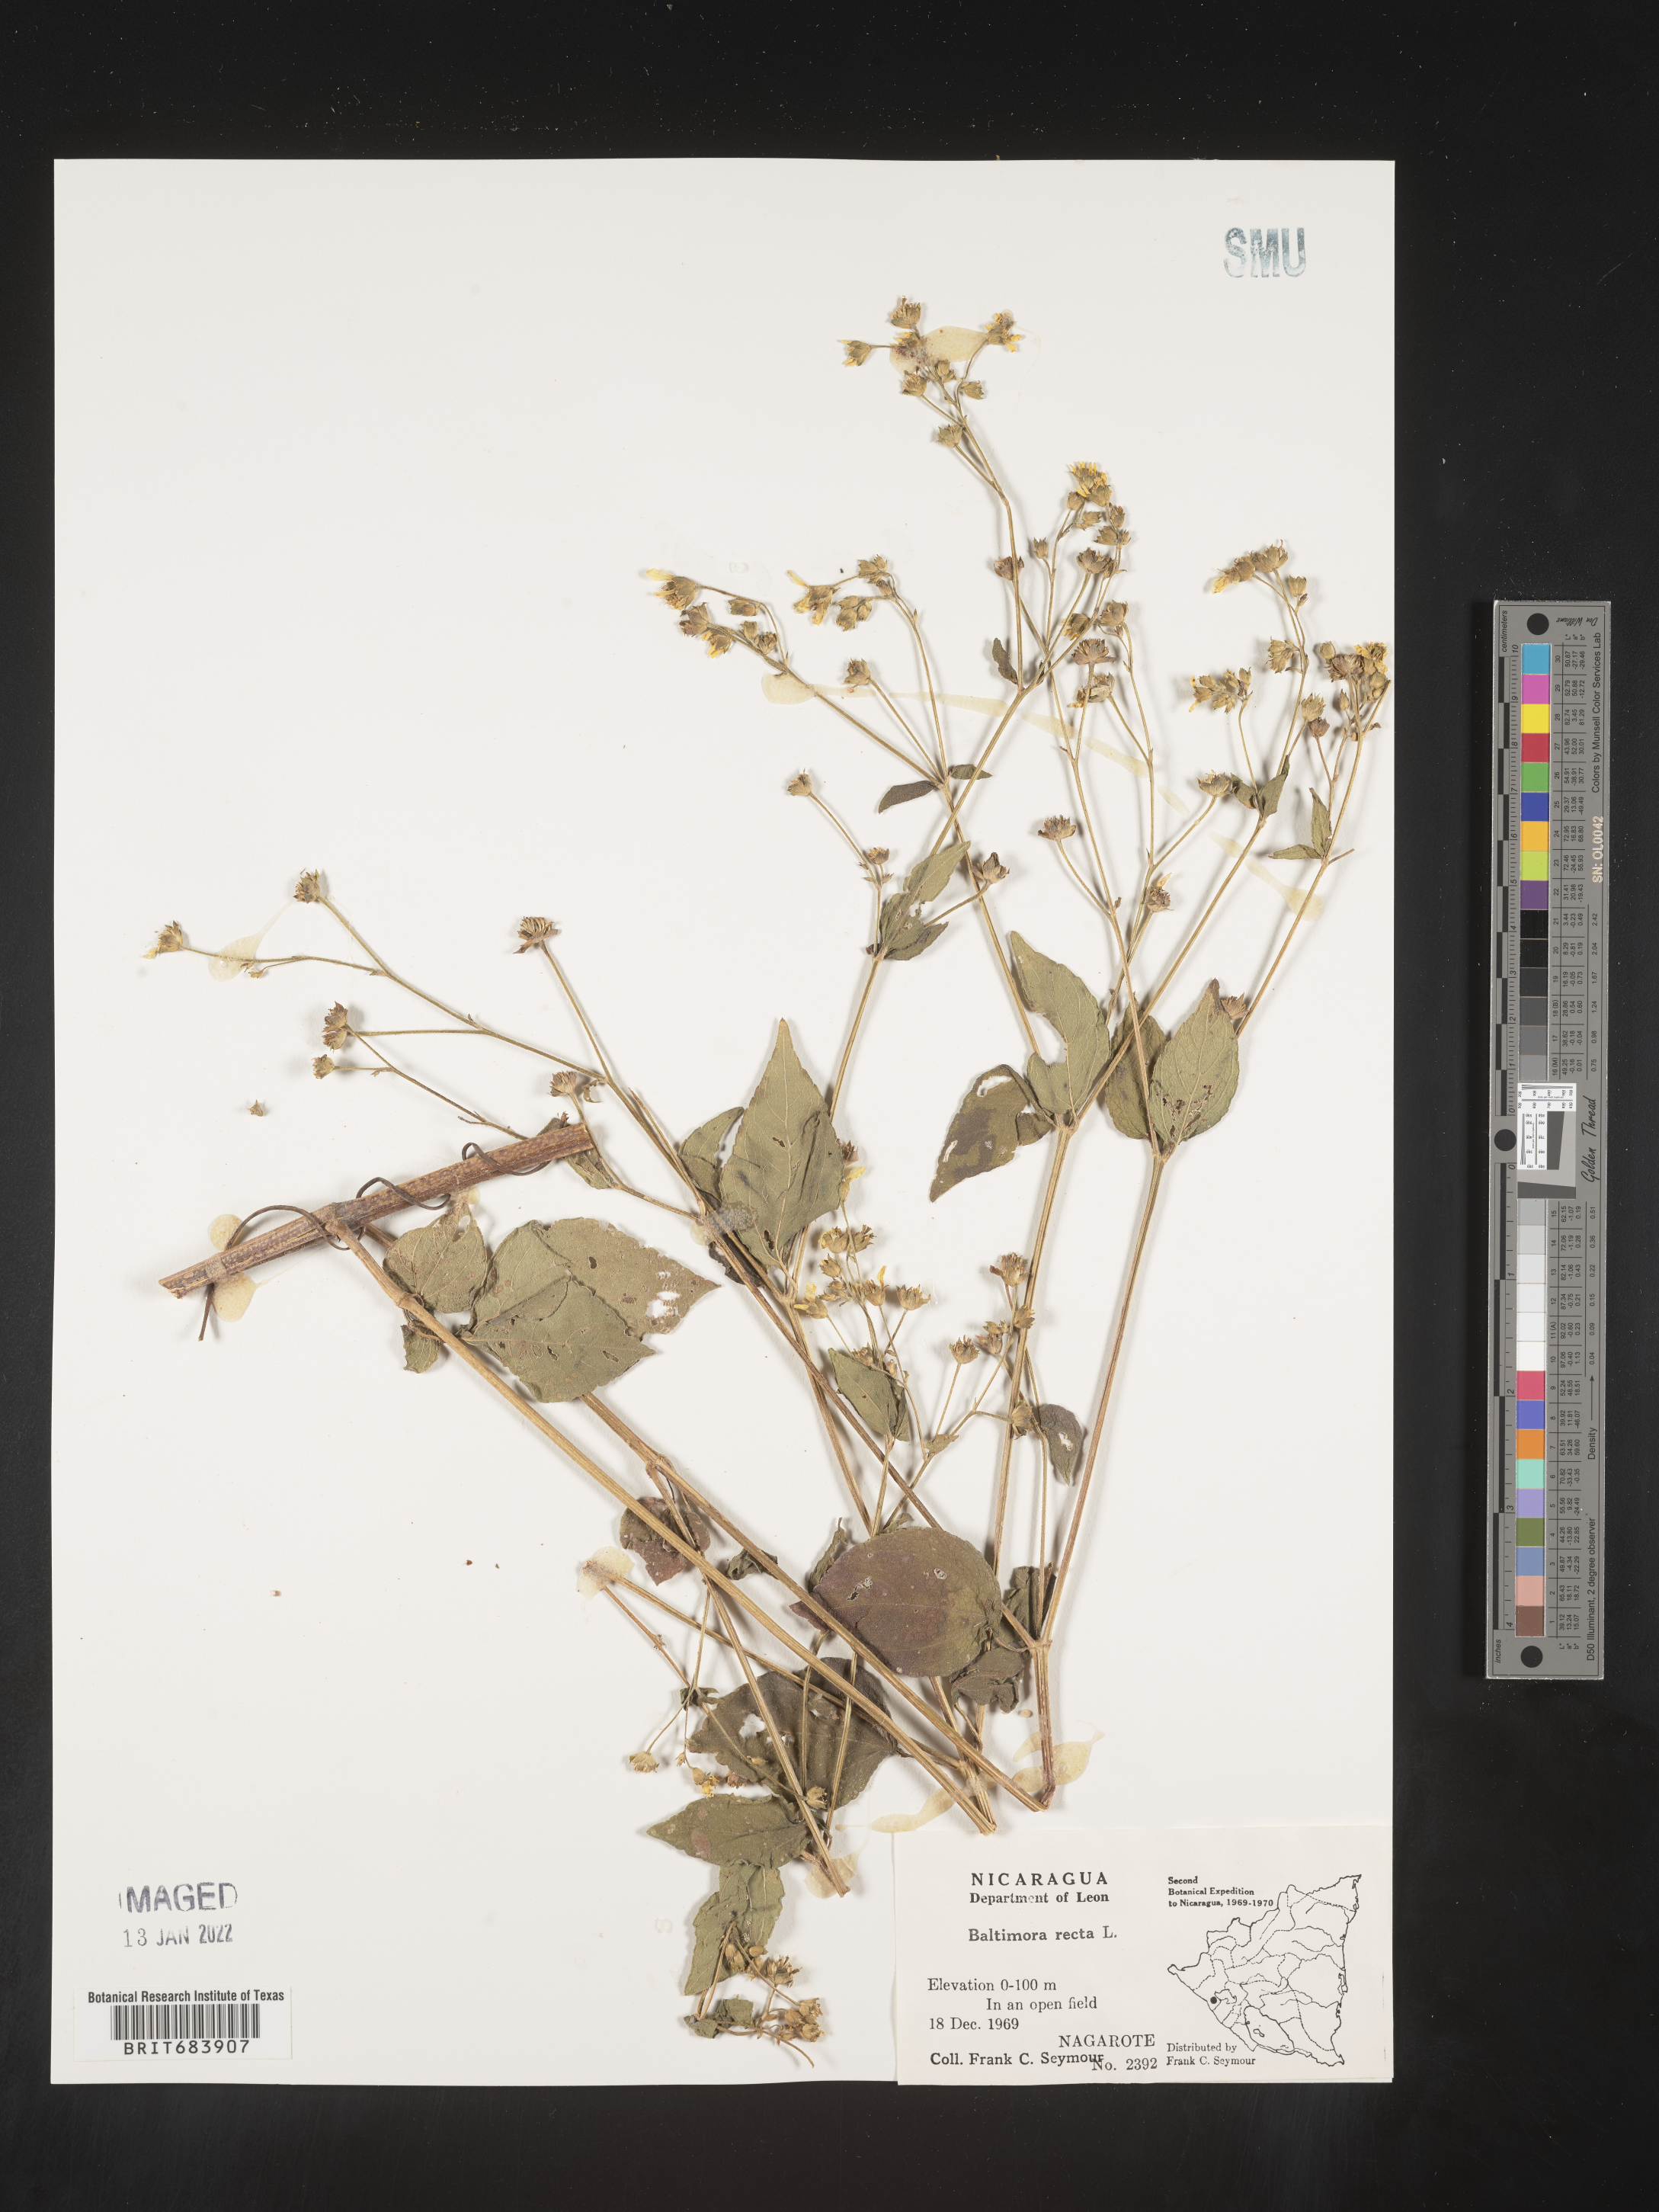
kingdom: Plantae
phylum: Tracheophyta
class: Magnoliopsida
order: Asterales
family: Asteraceae
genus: Baltimora
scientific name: Baltimora
